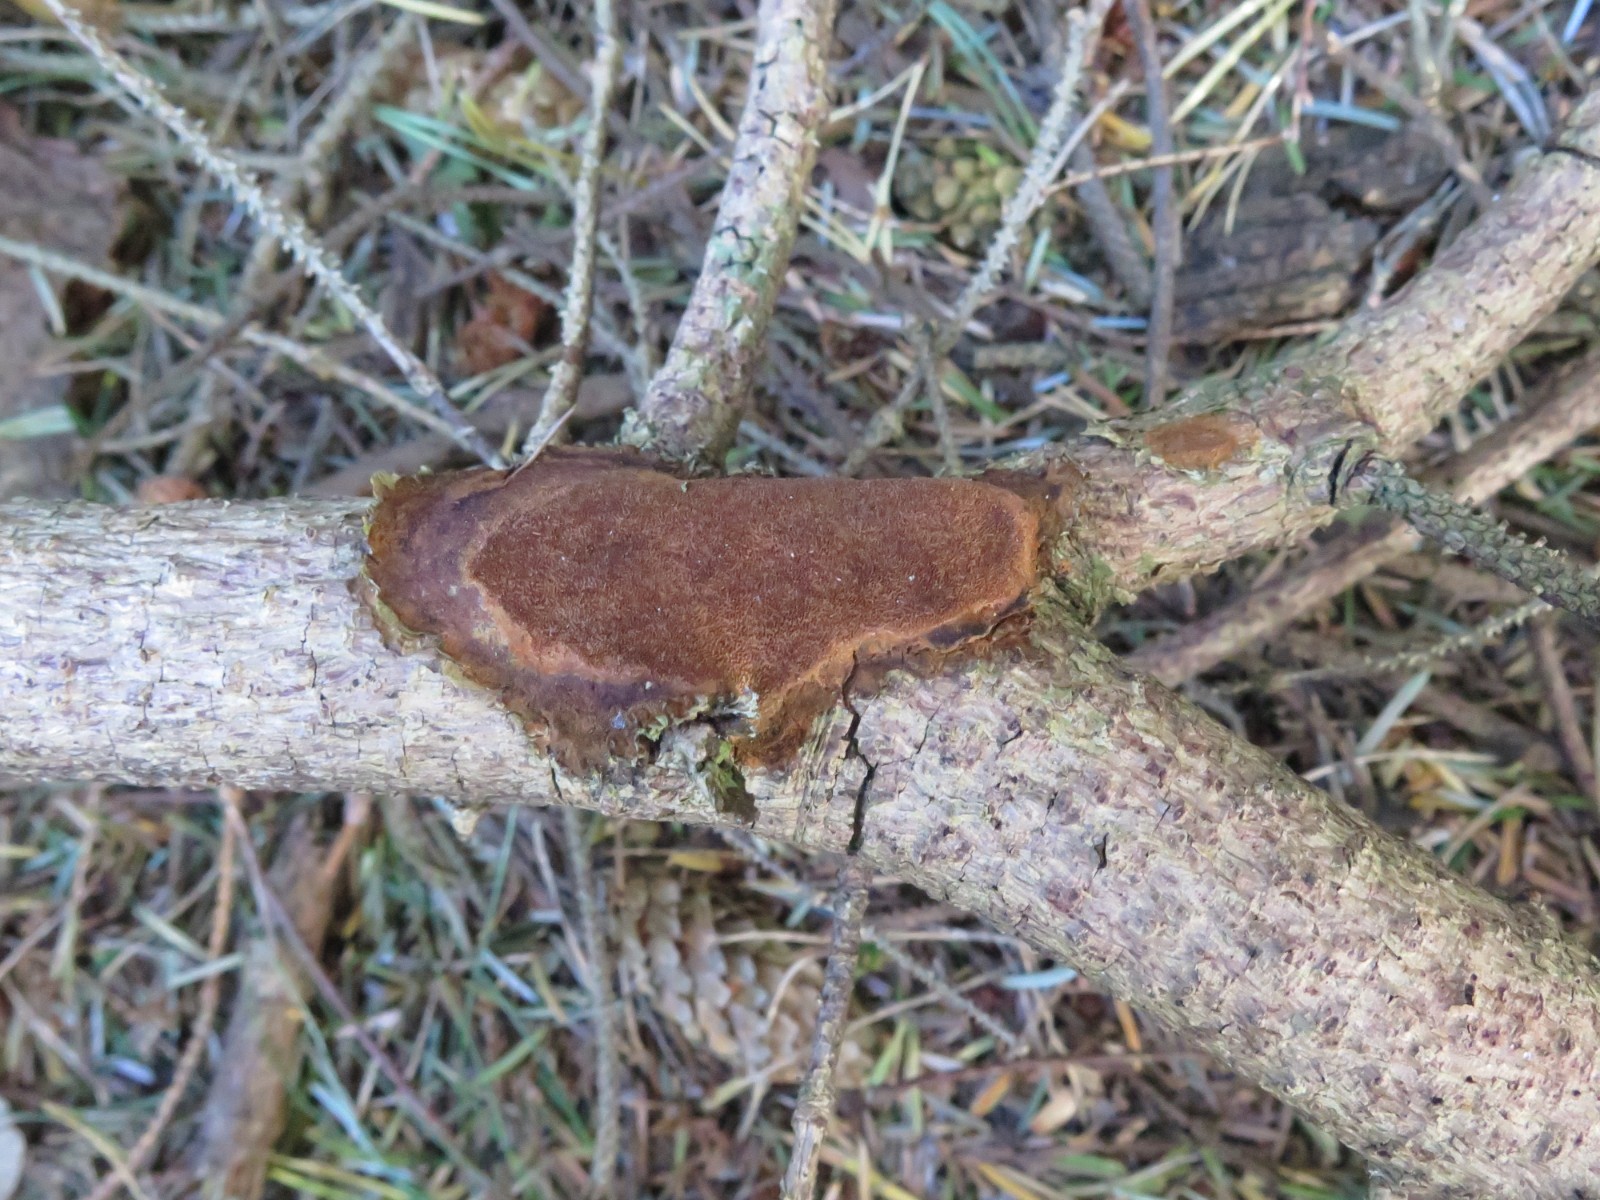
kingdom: Fungi
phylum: Basidiomycota
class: Agaricomycetes
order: Hymenochaetales
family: Hymenochaetaceae
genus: Fuscoporia
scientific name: Fuscoporia ferrea
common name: skorpe-ildporesvamp
